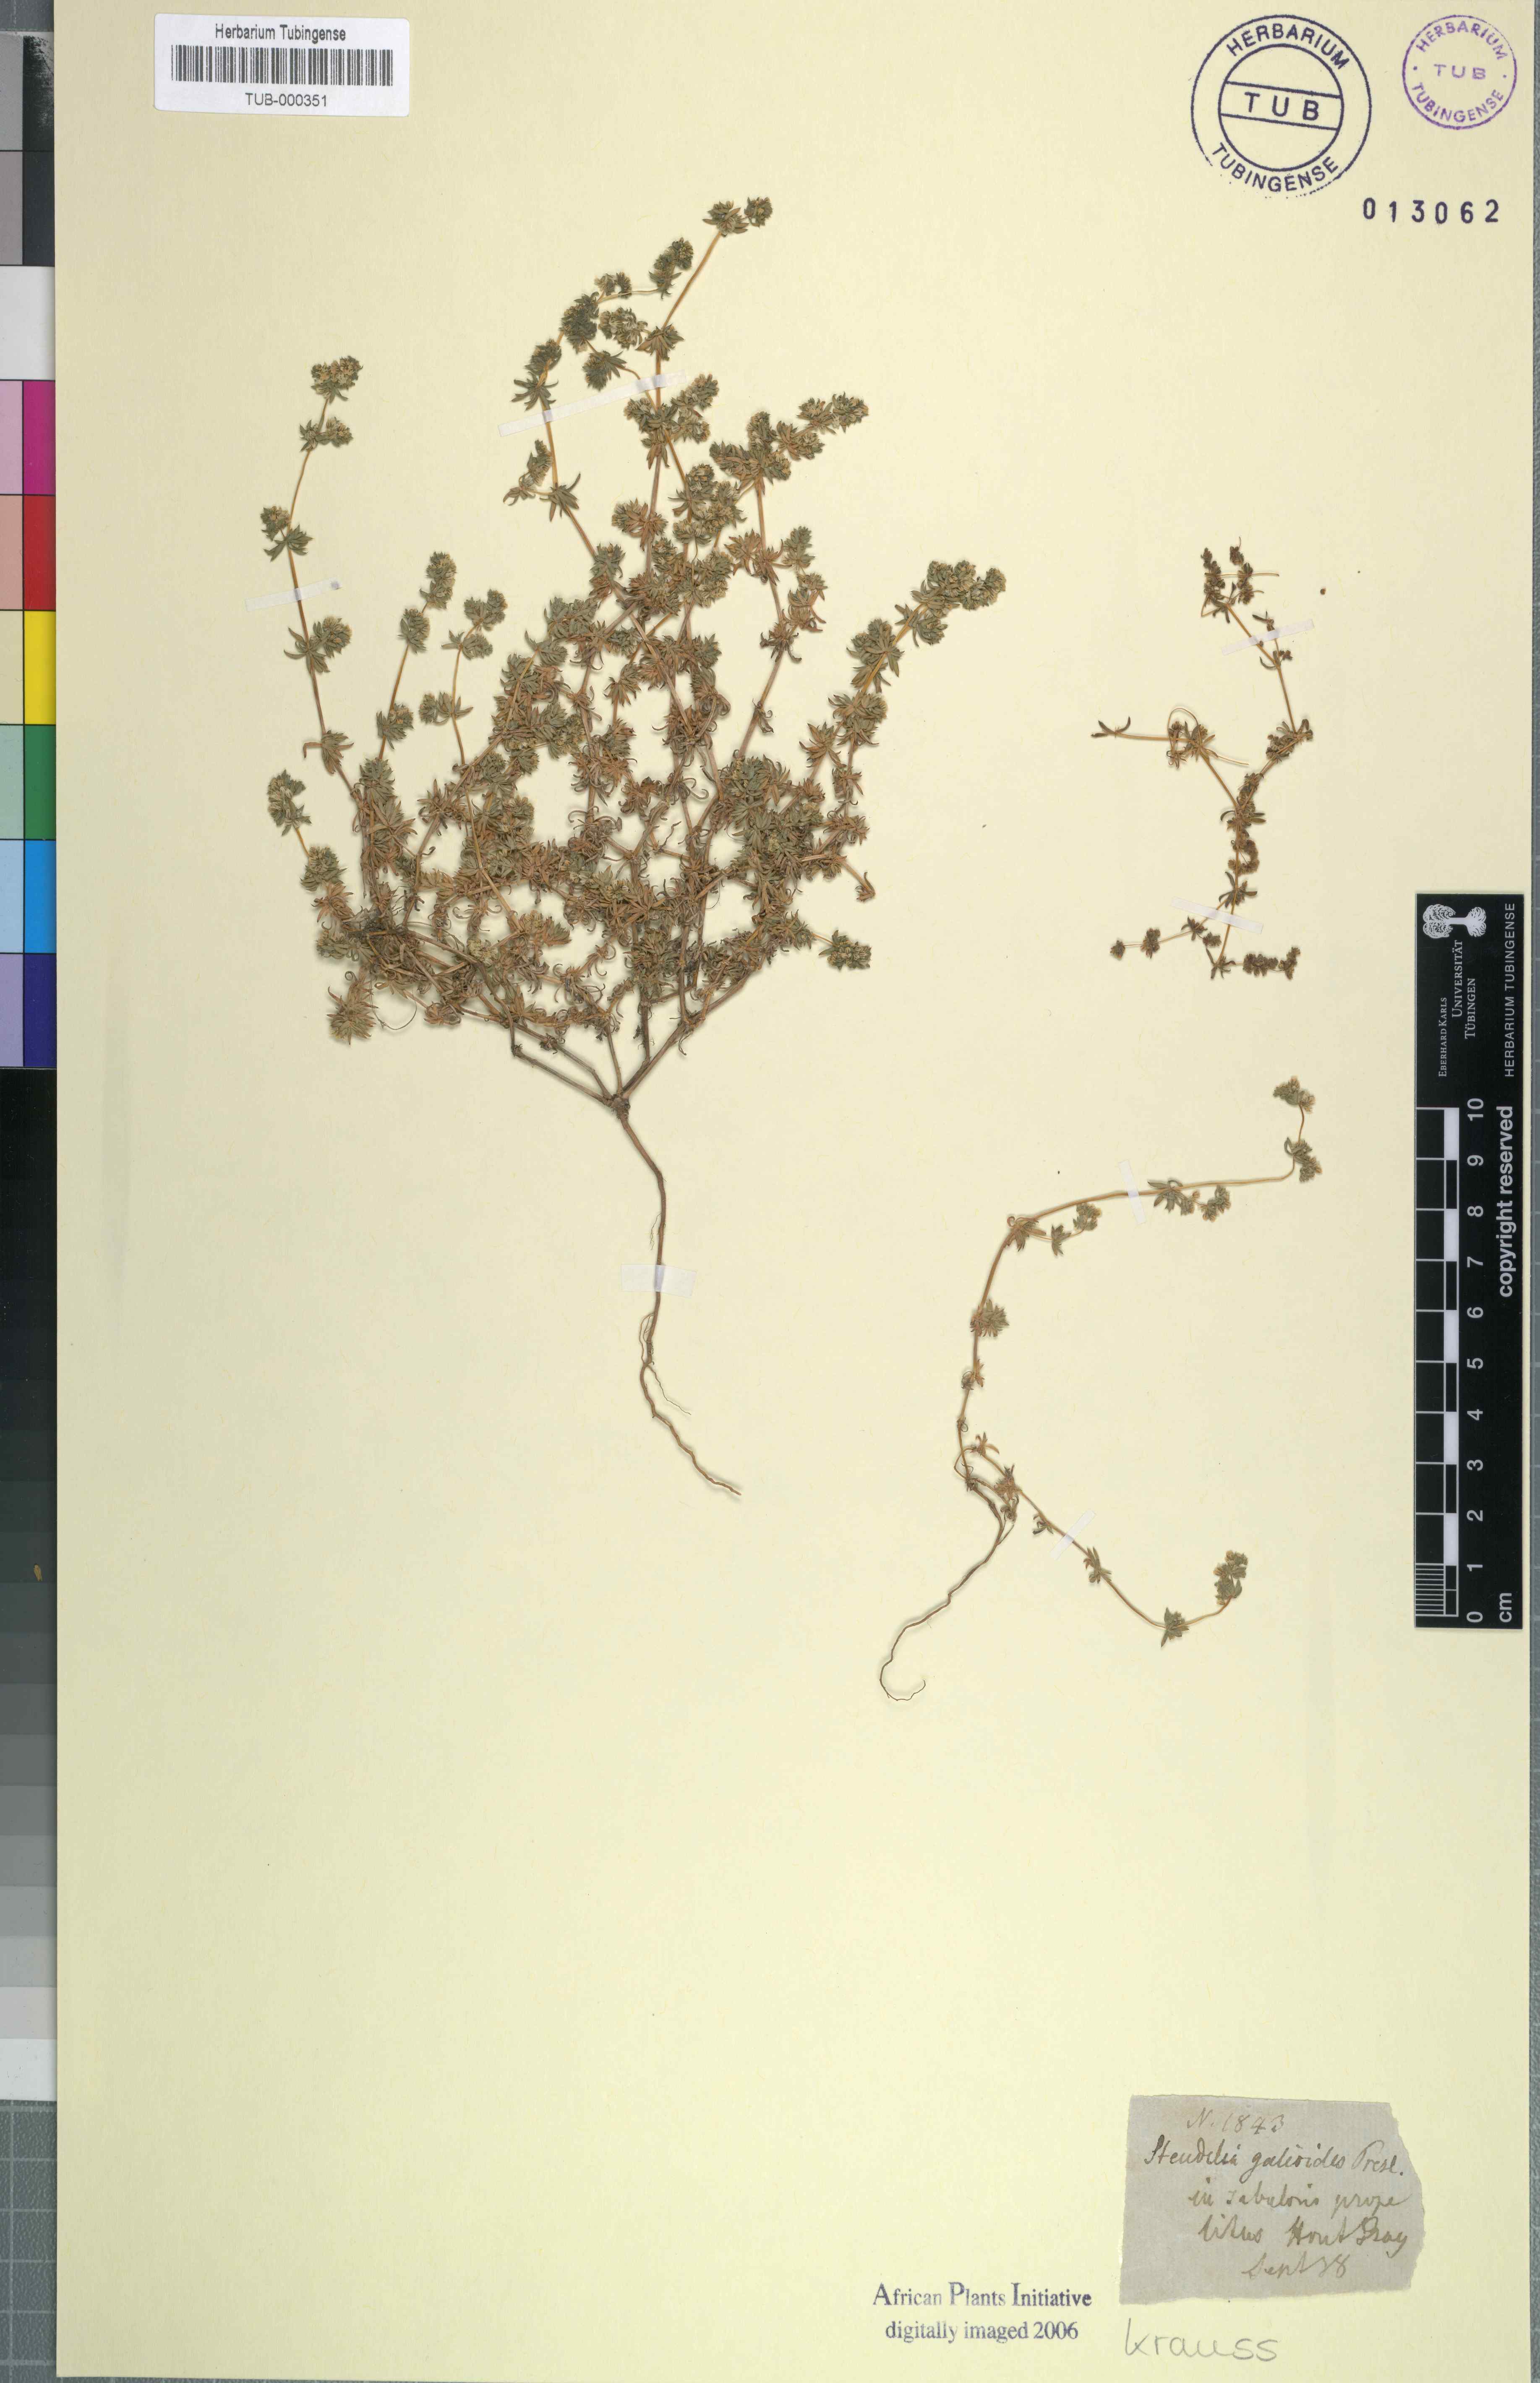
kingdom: Plantae
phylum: Tracheophyta
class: Magnoliopsida
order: Caryophyllales
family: Molluginaceae
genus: Adenogramma
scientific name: Adenogramma glomerata
